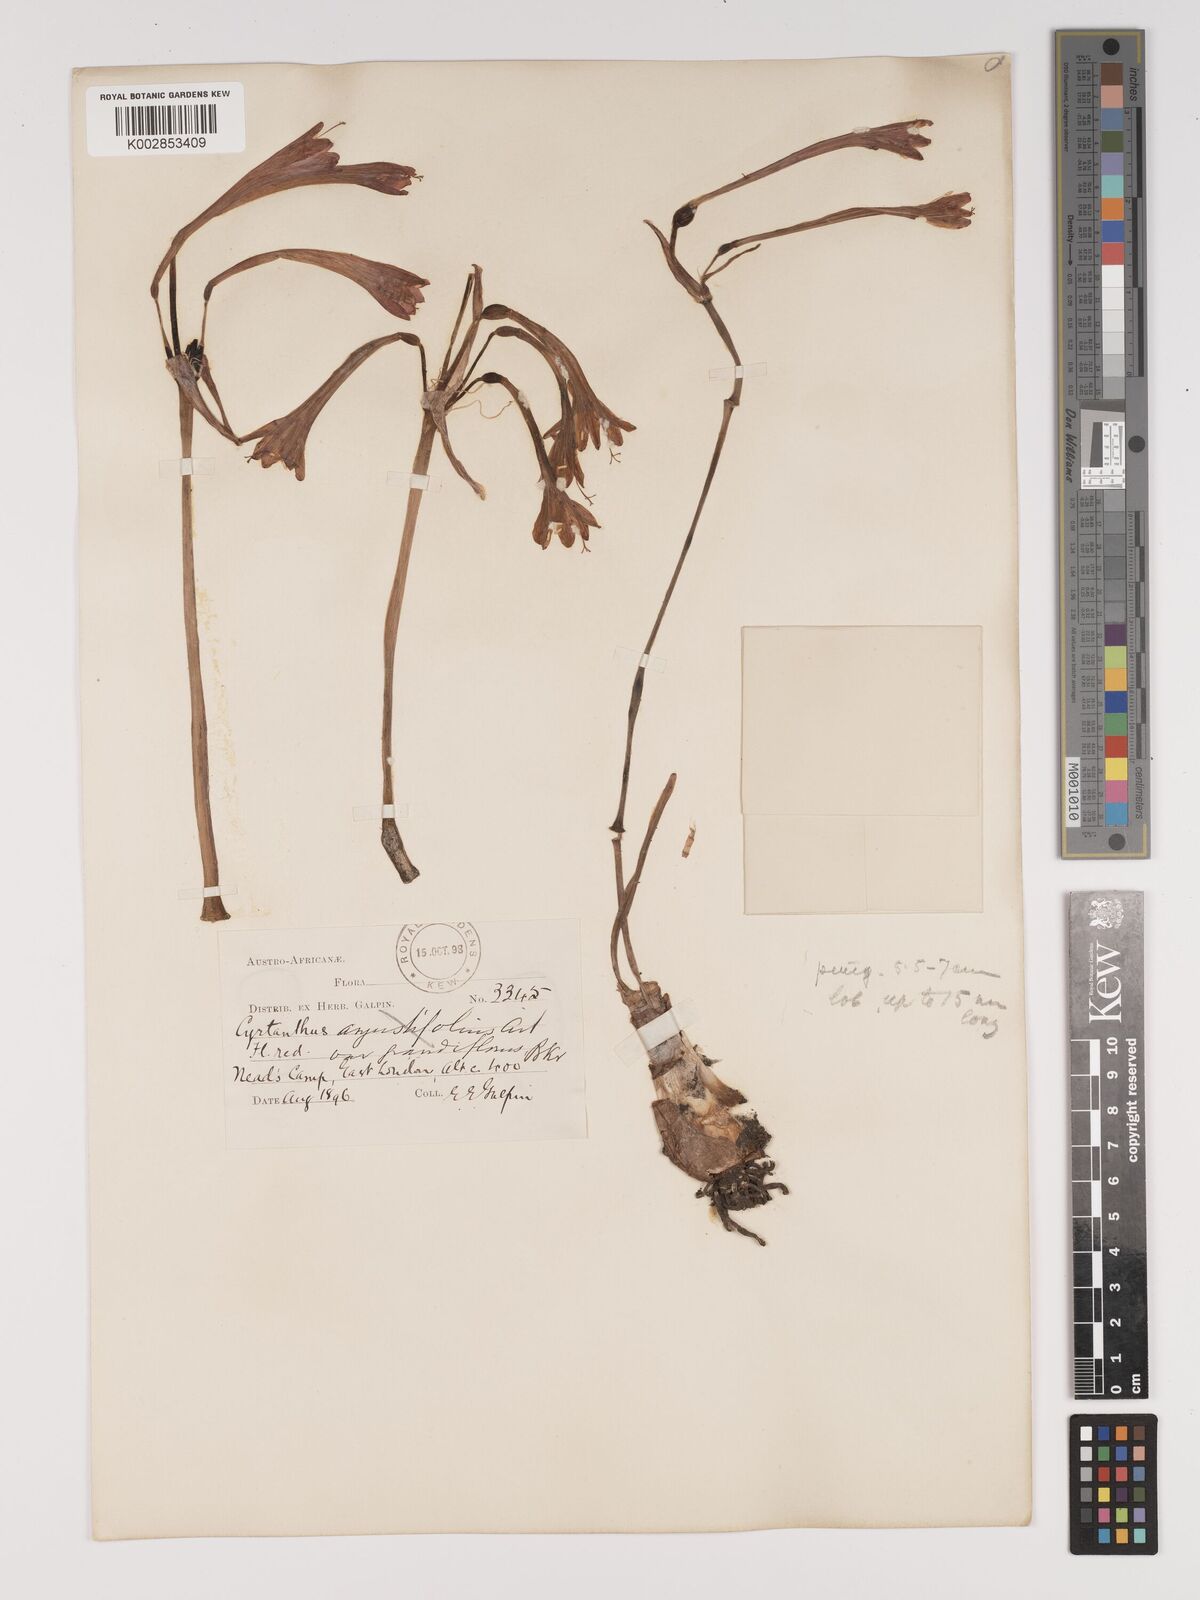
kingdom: Plantae
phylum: Tracheophyta
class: Liliopsida
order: Asparagales
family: Amaryllidaceae
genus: Cyrtanthus
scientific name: Cyrtanthus contractus
